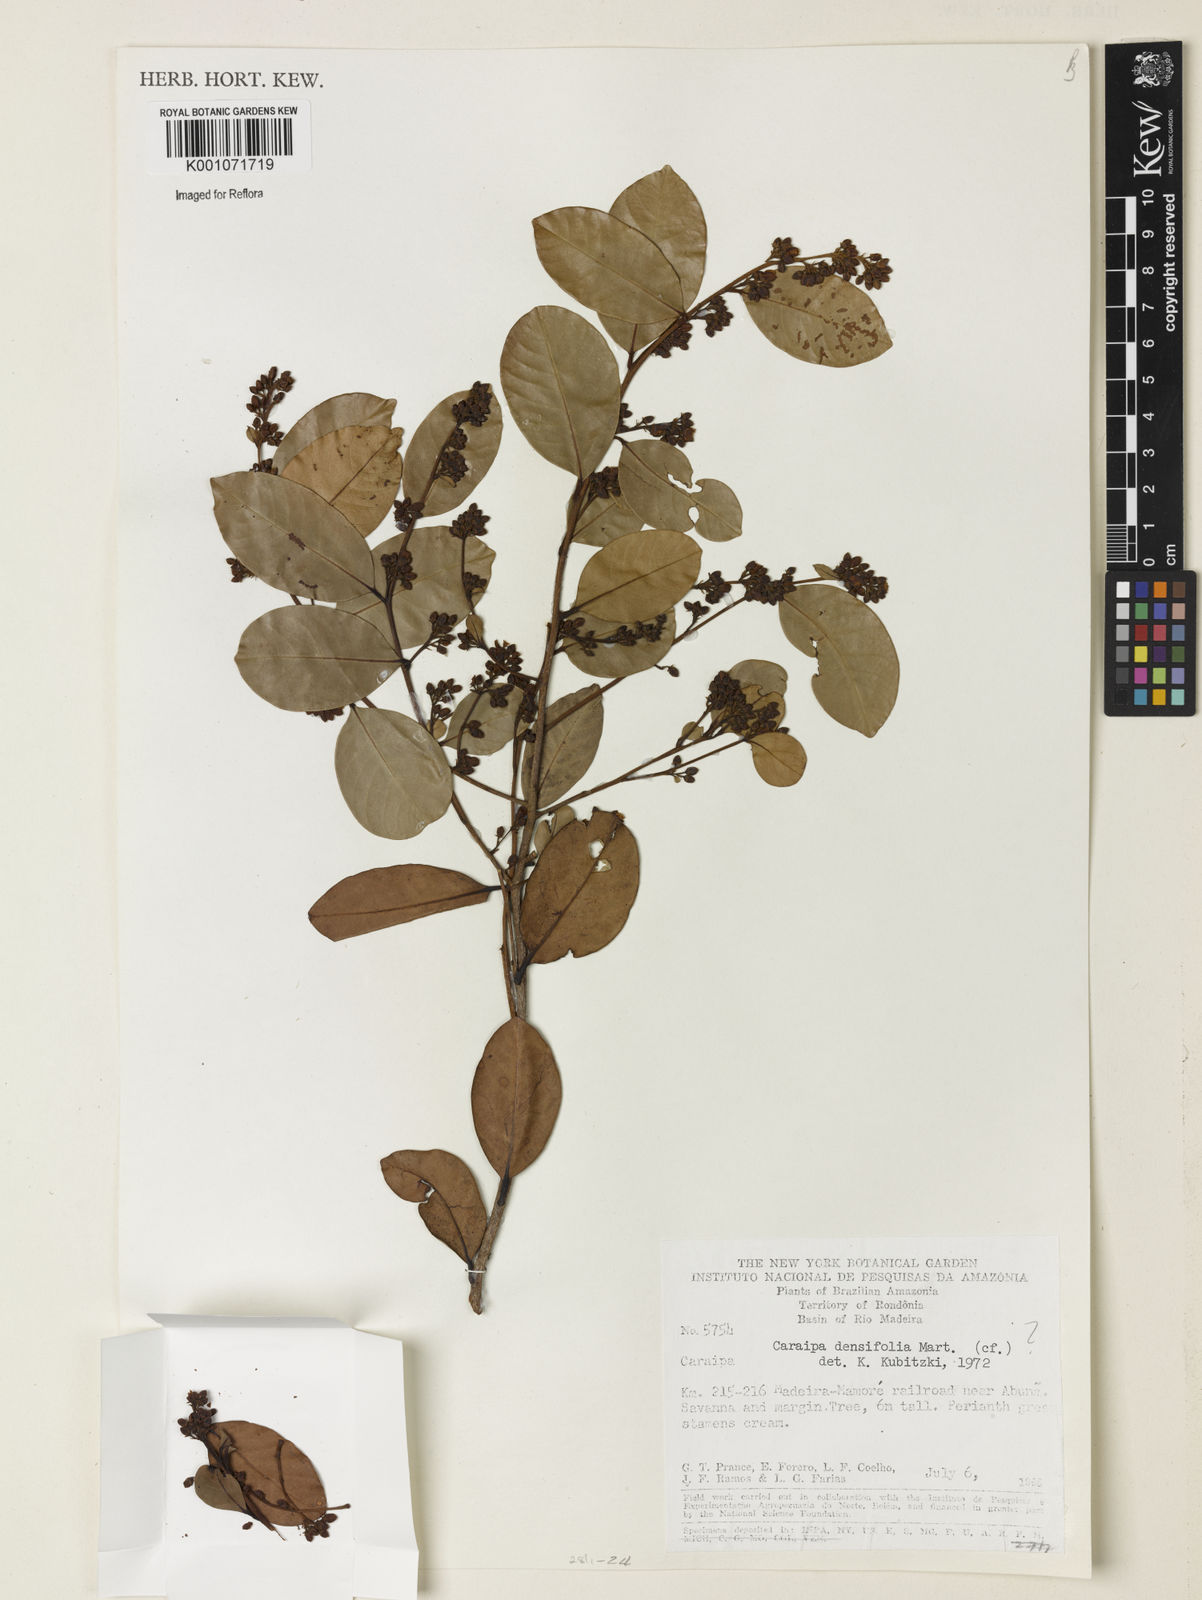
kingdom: Plantae
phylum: Tracheophyta
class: Magnoliopsida
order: Malpighiales
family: Calophyllaceae
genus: Caraipa
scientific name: Caraipa densifolia
